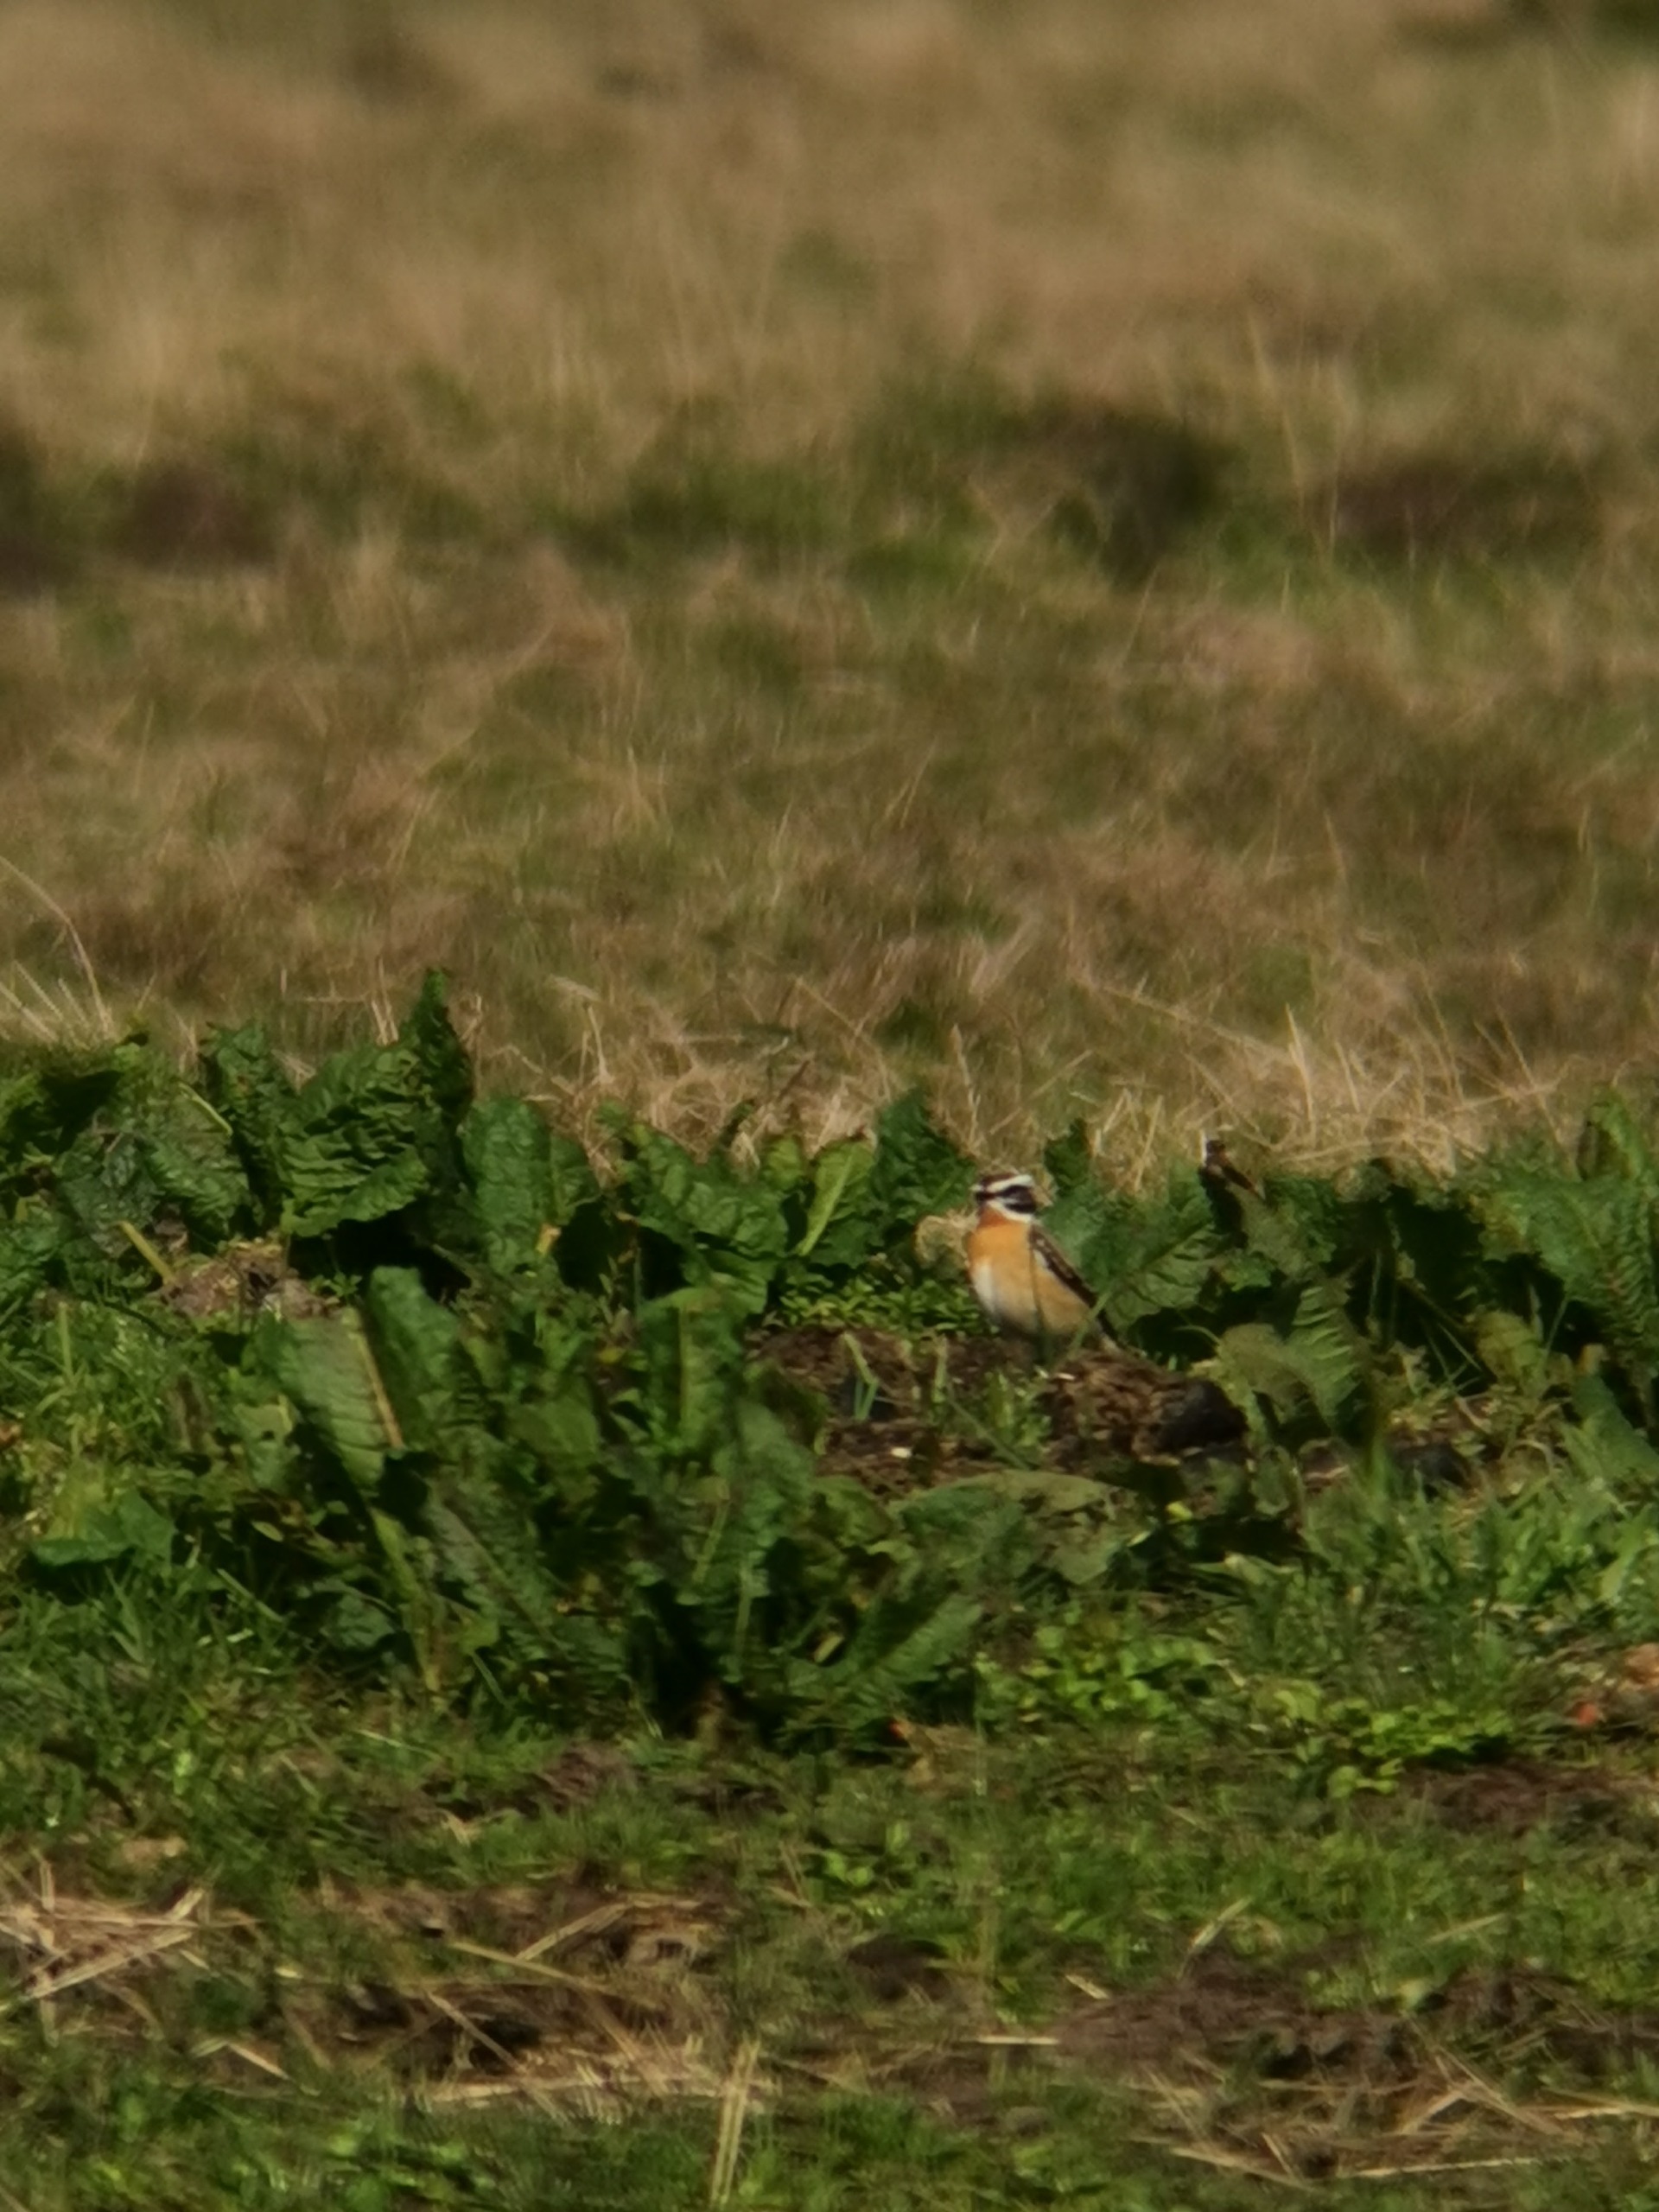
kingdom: Animalia
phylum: Chordata
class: Aves
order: Passeriformes
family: Muscicapidae
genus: Saxicola
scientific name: Saxicola rubetra
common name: Bynkefugl
